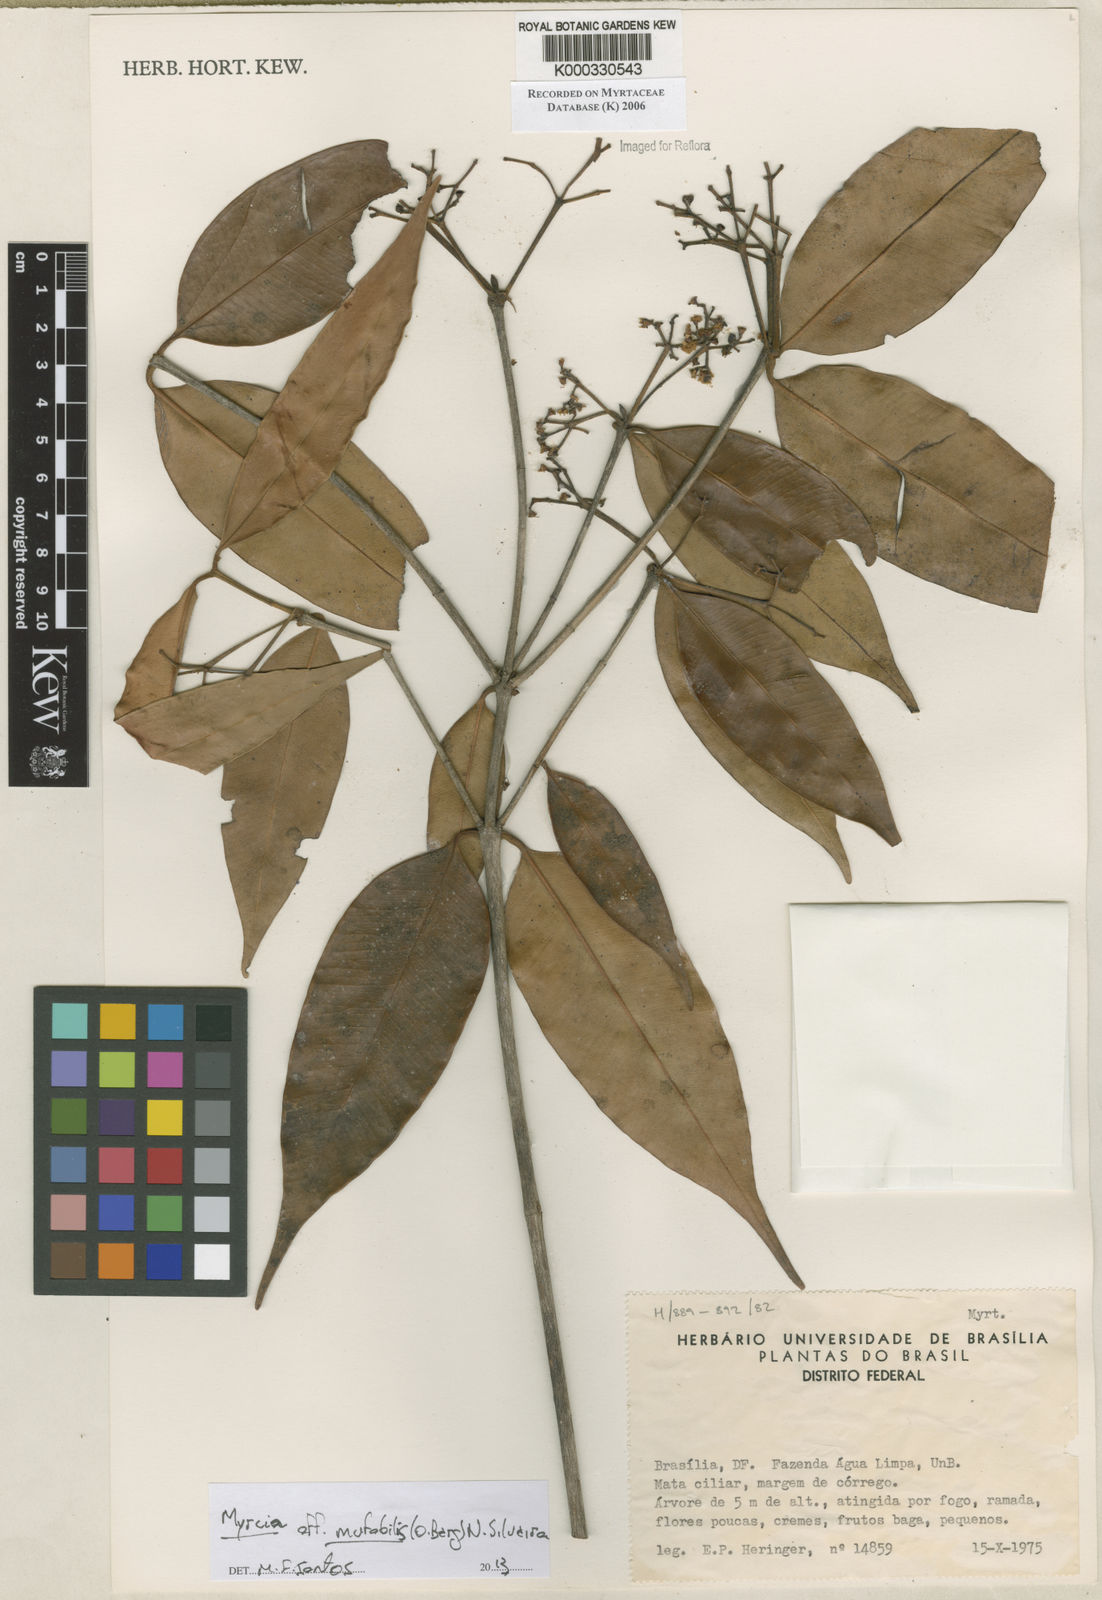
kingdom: Plantae
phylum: Tracheophyta
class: Magnoliopsida
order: Myrtales
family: Myrtaceae
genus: Myrcia
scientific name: Myrcia bipennis
